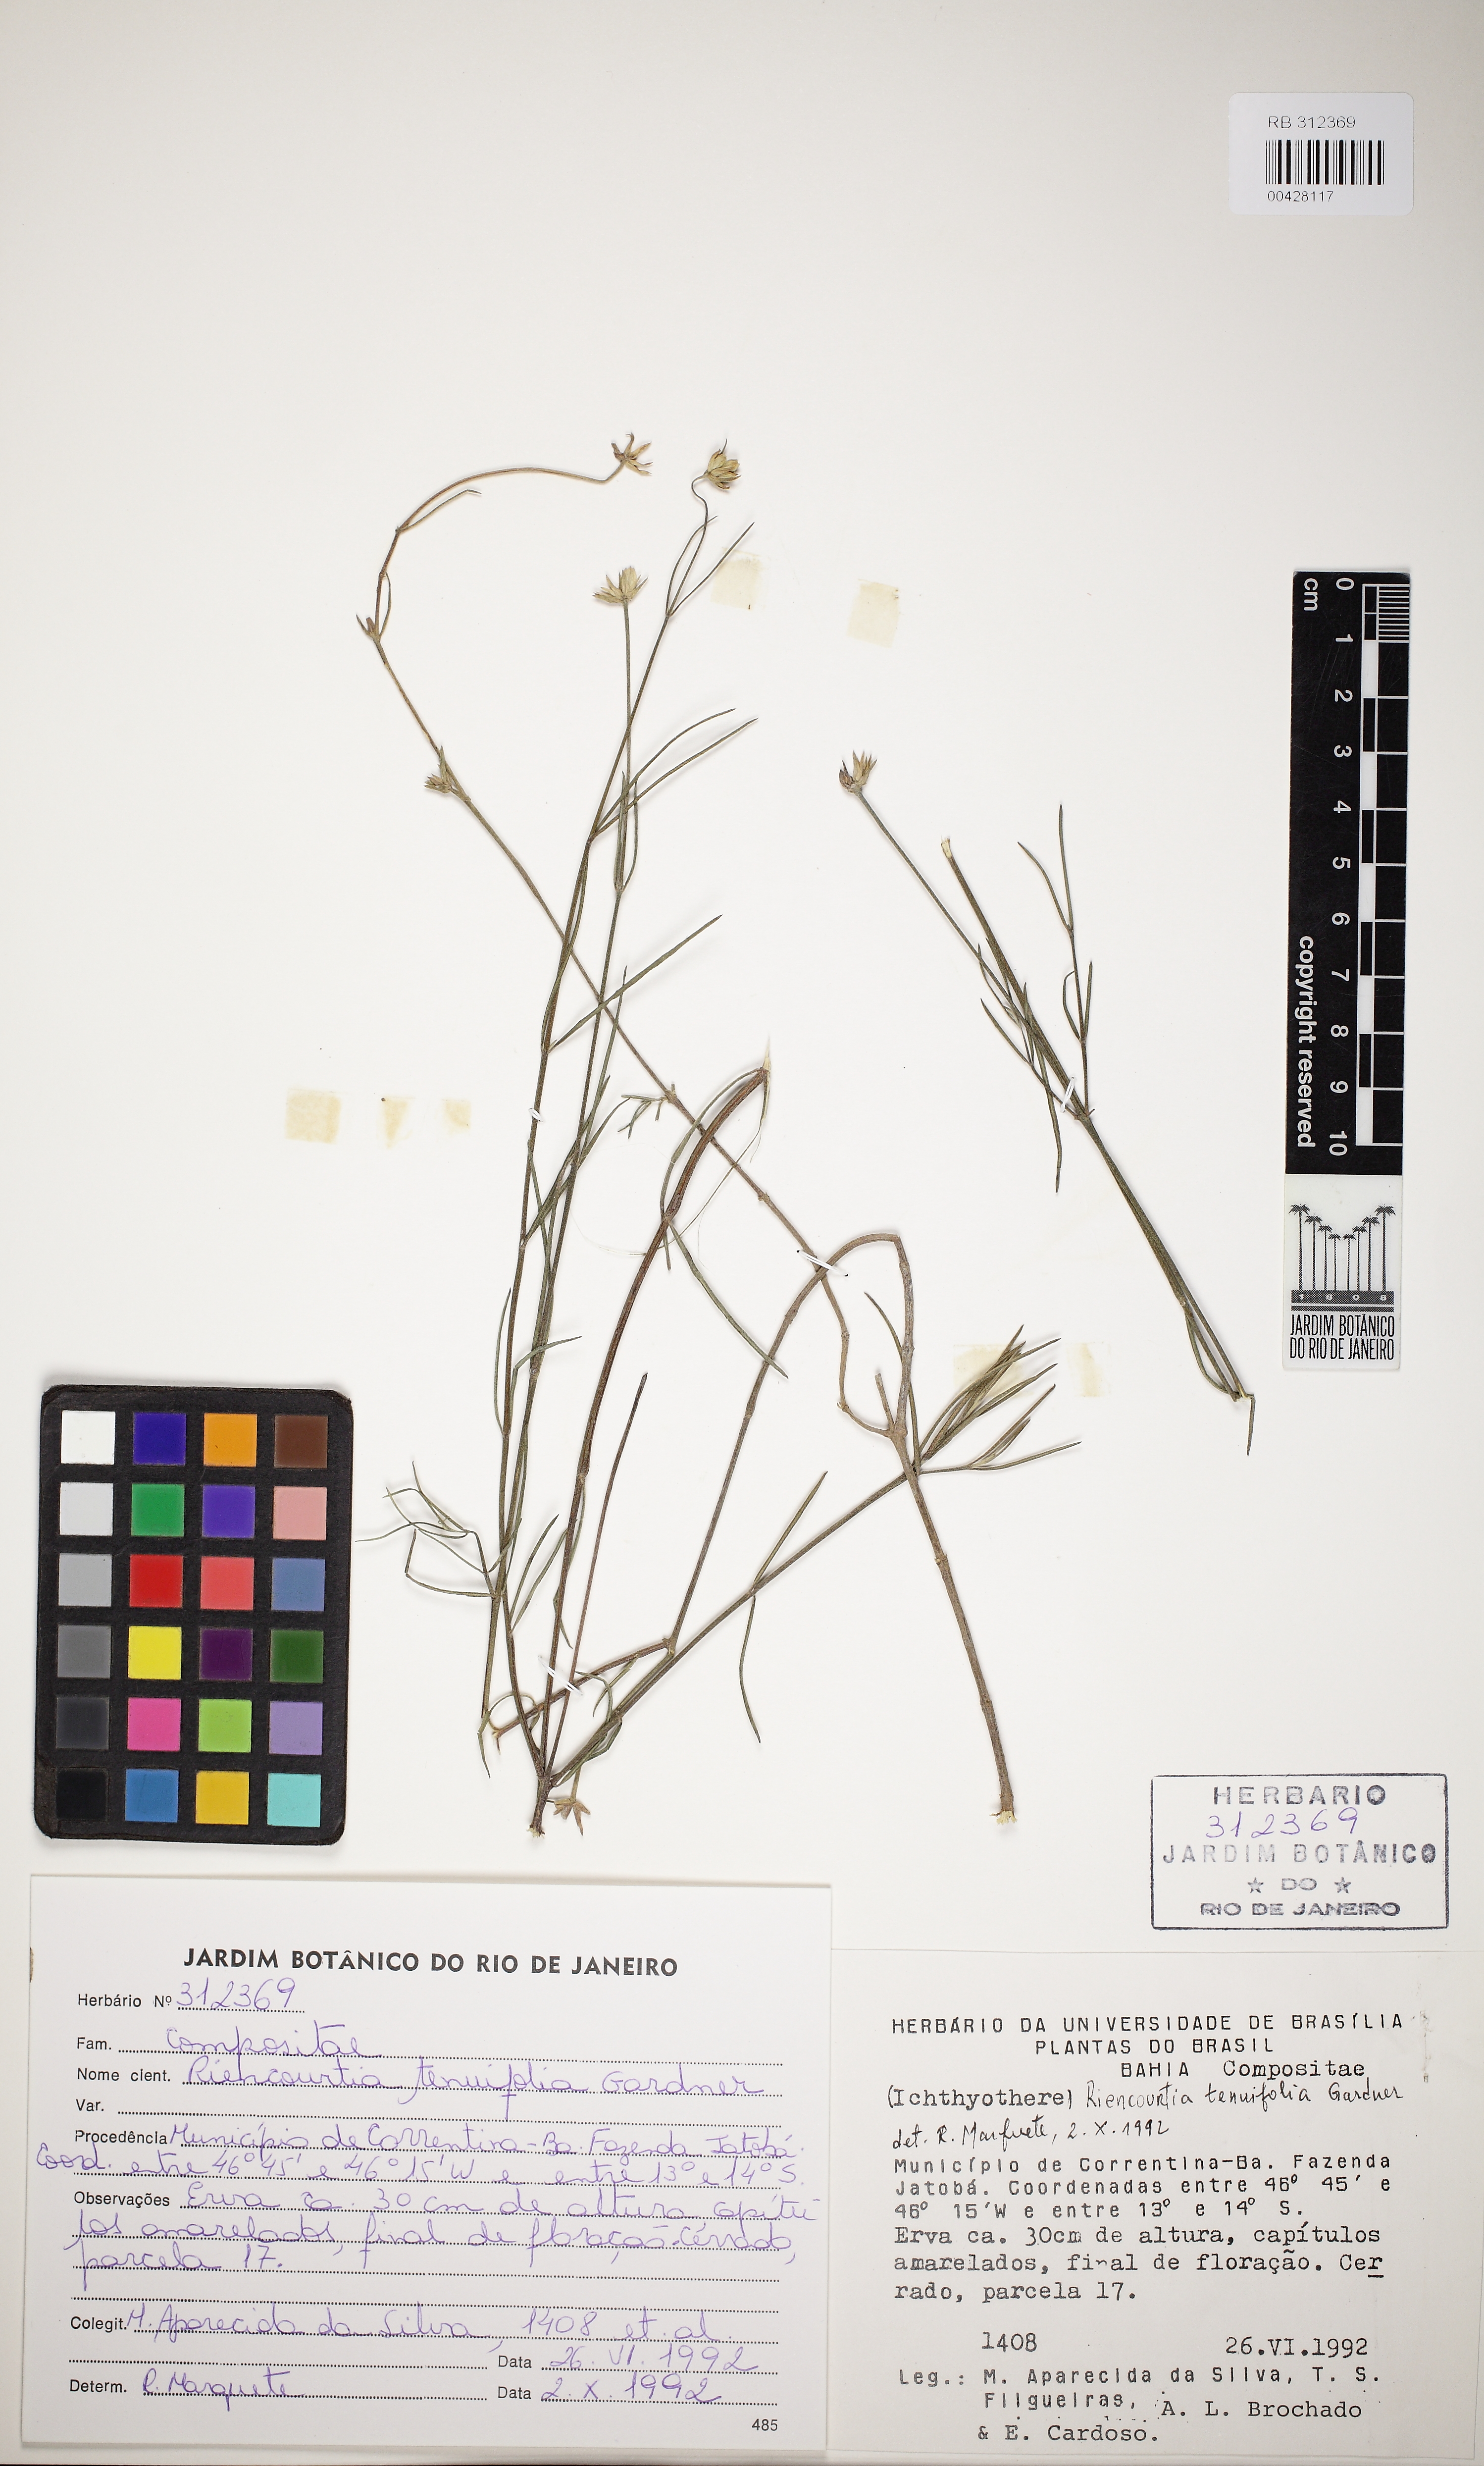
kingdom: Plantae
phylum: Tracheophyta
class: Magnoliopsida
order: Asterales
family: Asteraceae
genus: Riencourtia
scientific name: Riencourtia tenuifolia
